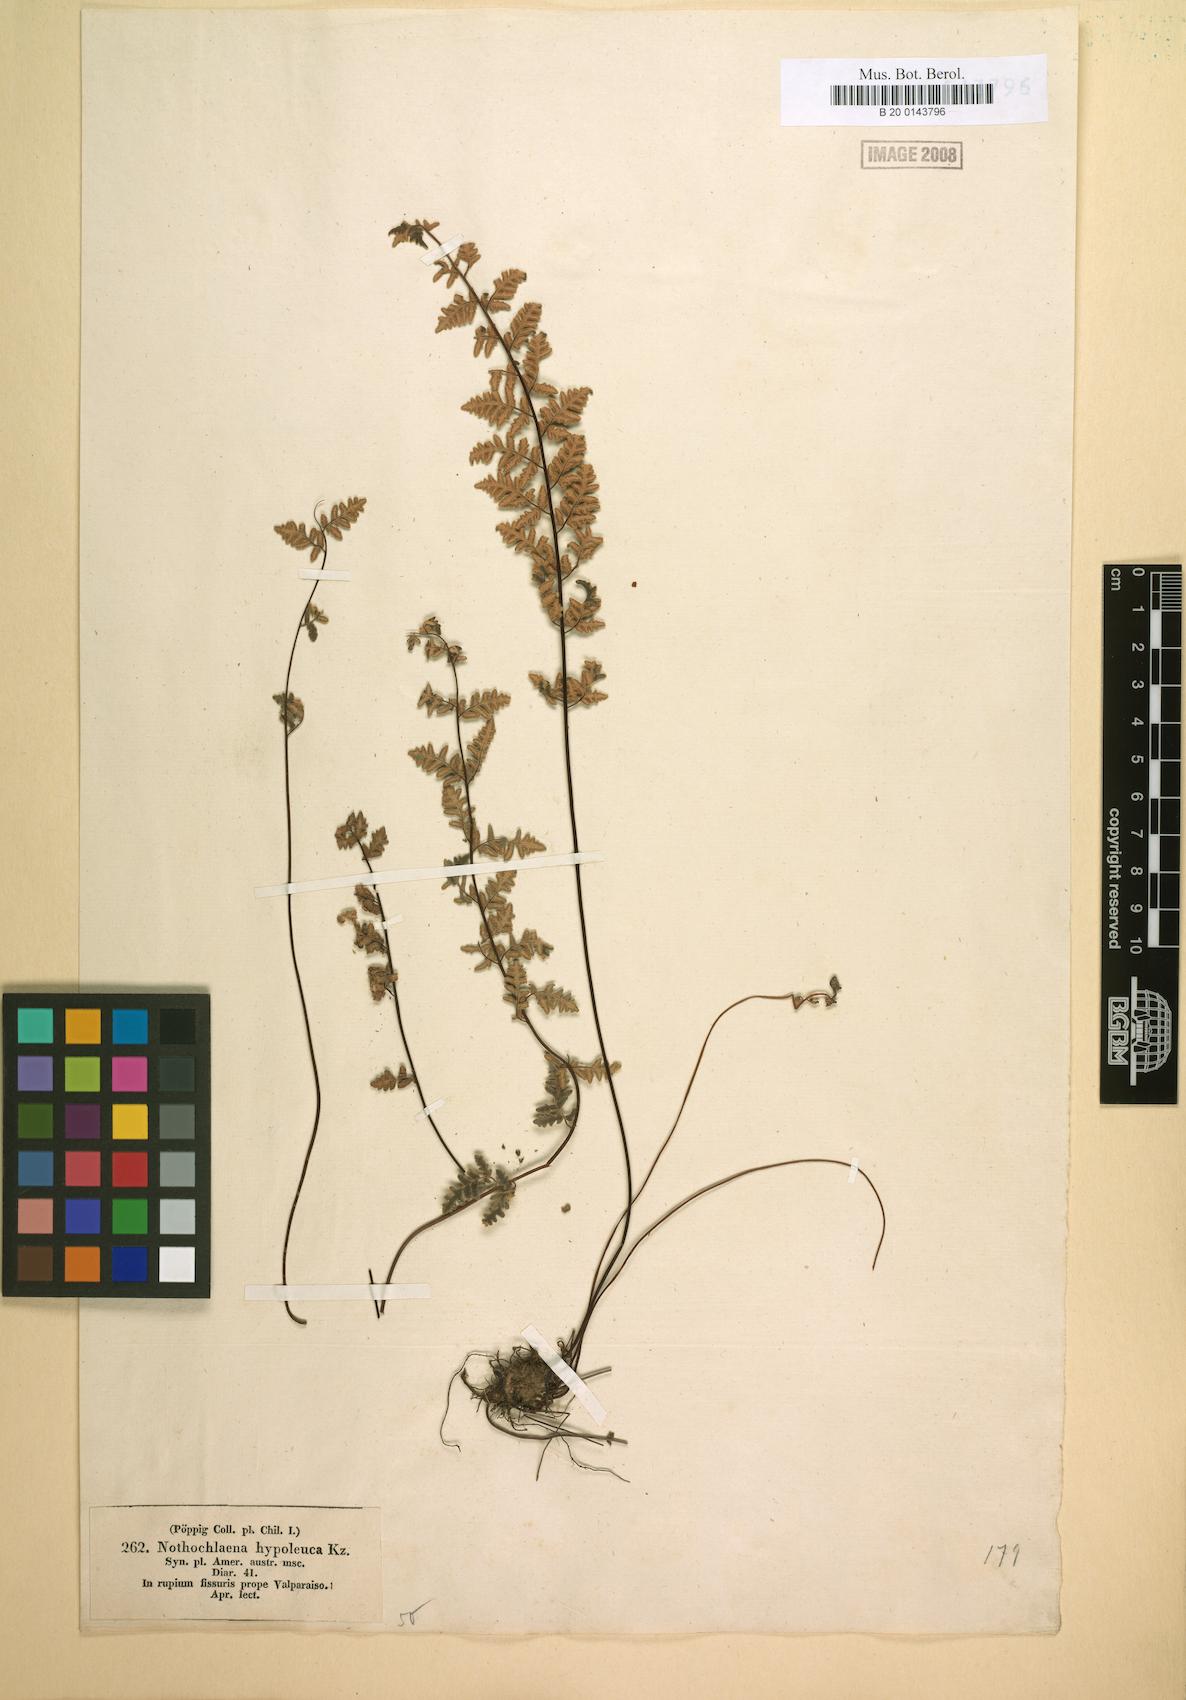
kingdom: Plantae
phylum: Tracheophyta
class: Polypodiopsida
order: Polypodiales
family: Pteridaceae
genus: Cheilanthes
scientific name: Cheilanthes hypoleuca
